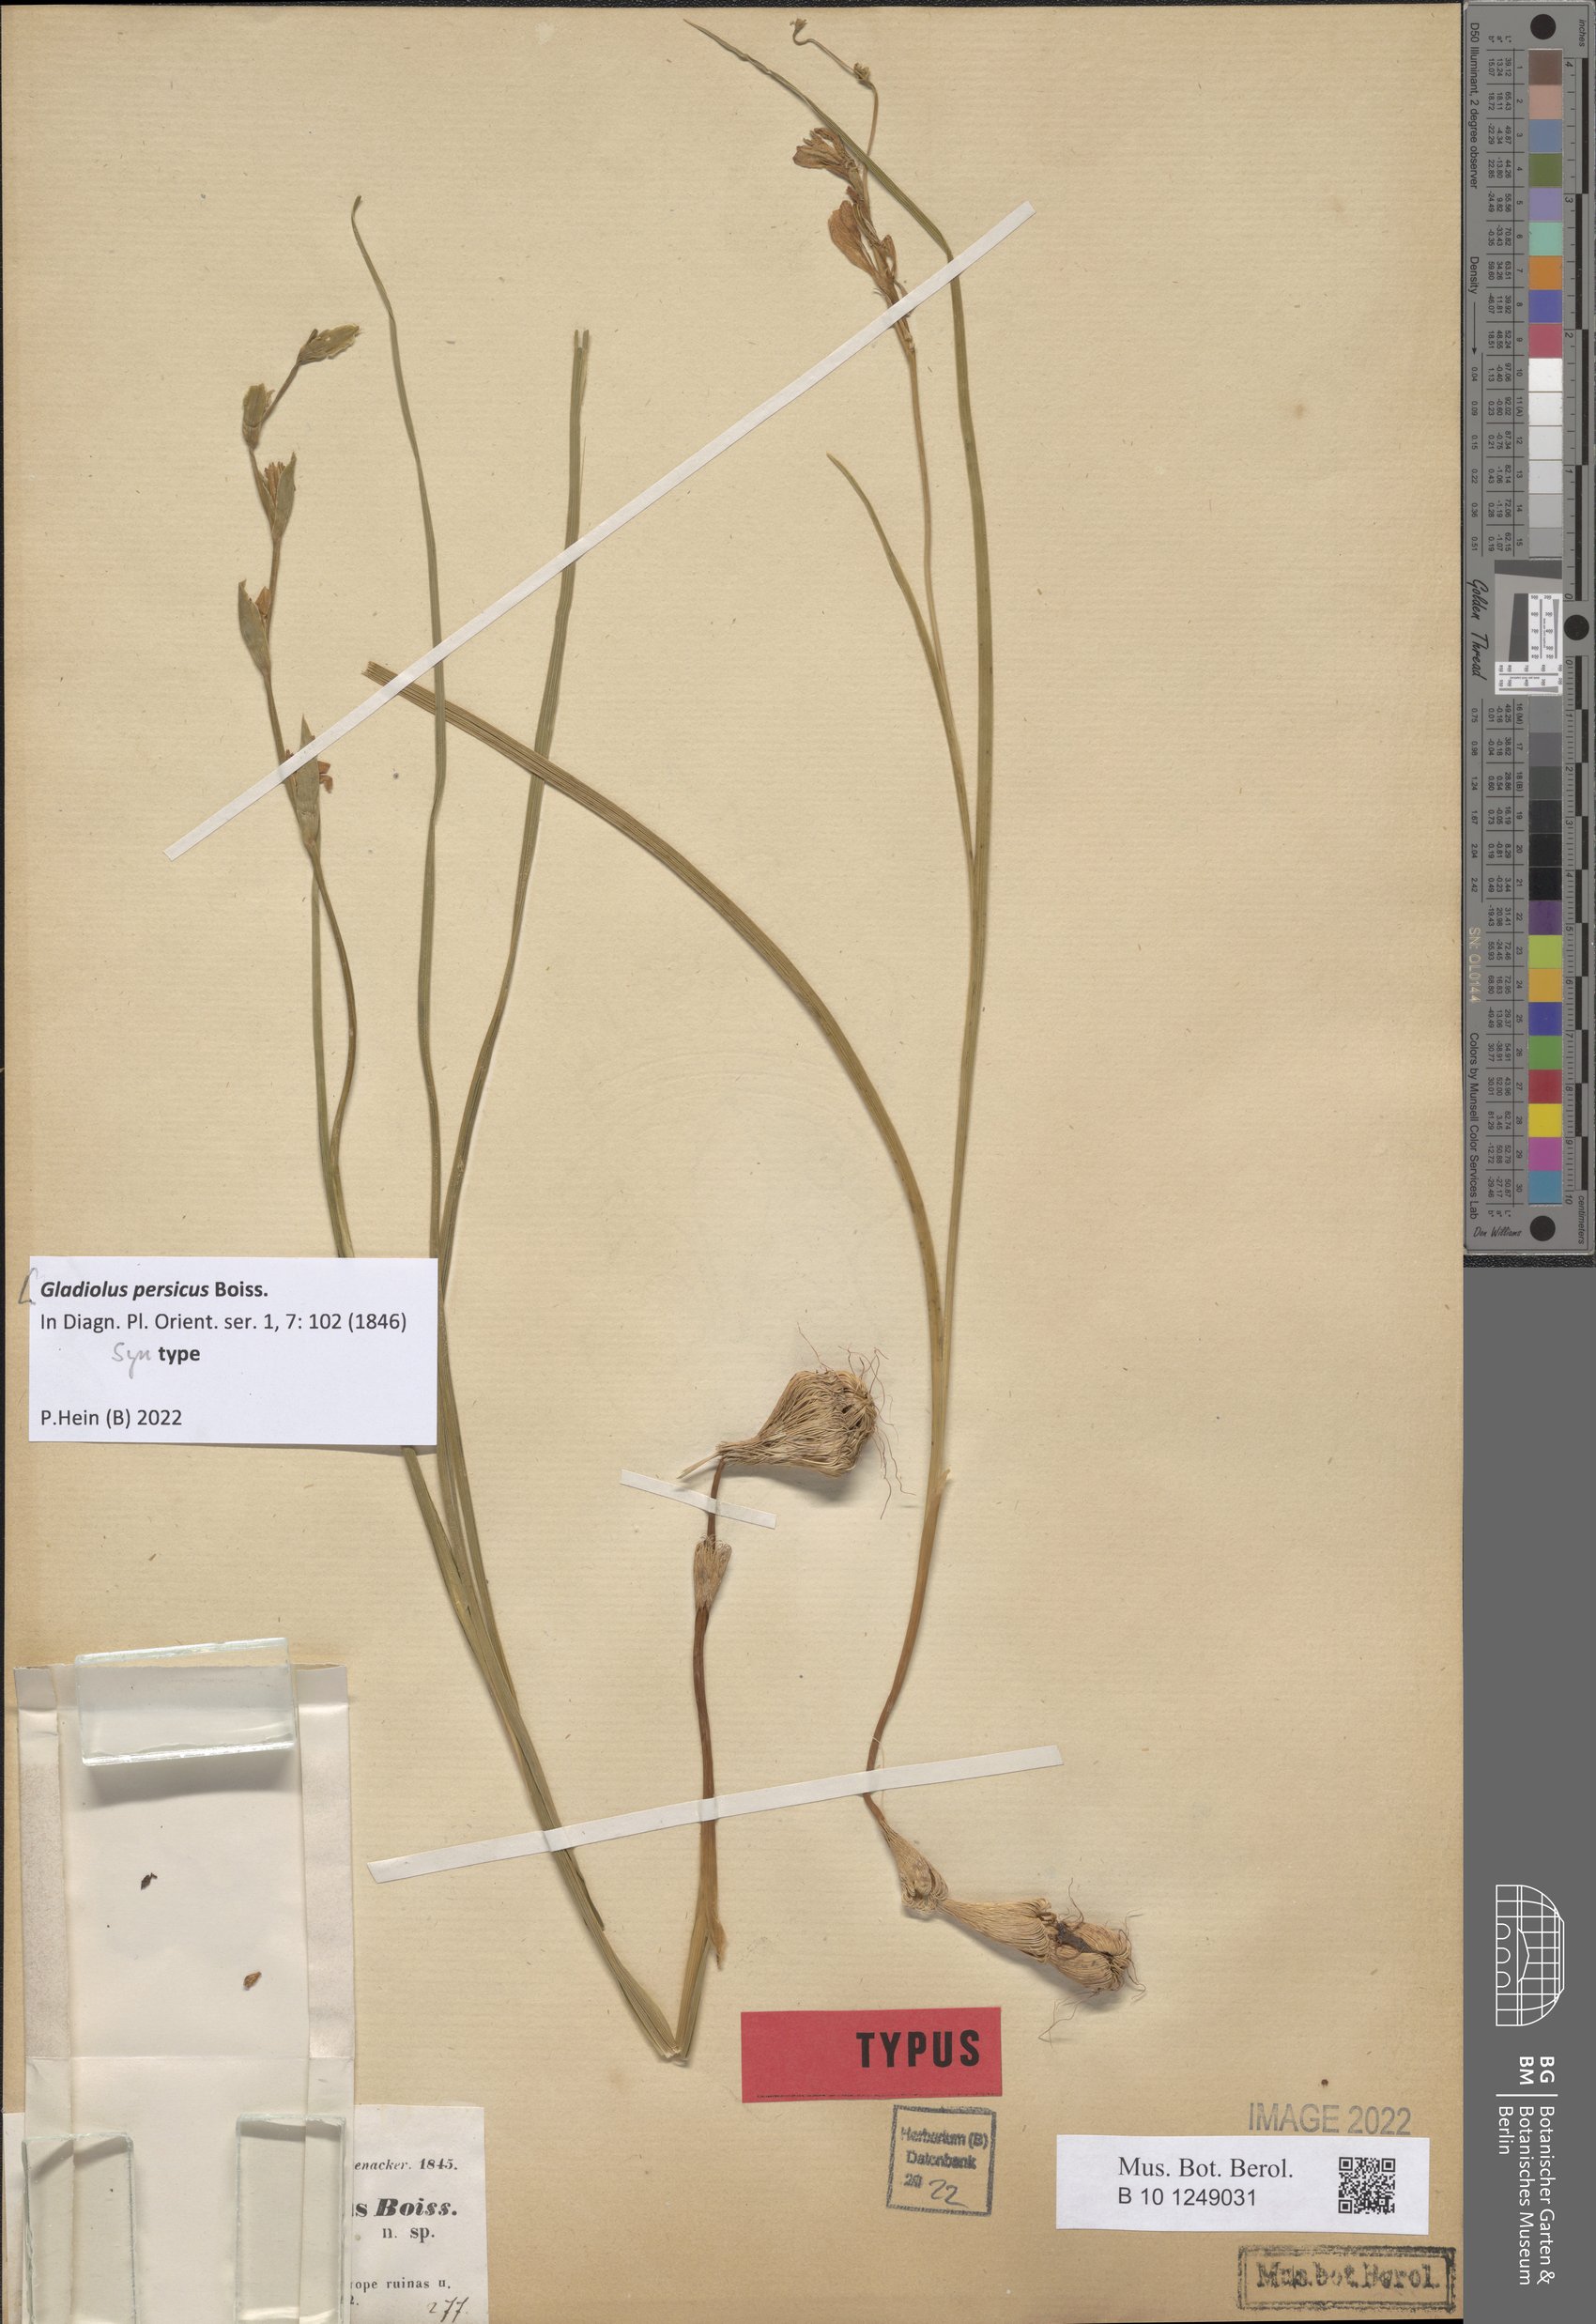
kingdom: Plantae
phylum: Tracheophyta
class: Liliopsida
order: Asparagales
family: Iridaceae
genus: Gladiolus
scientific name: Gladiolus persicus
